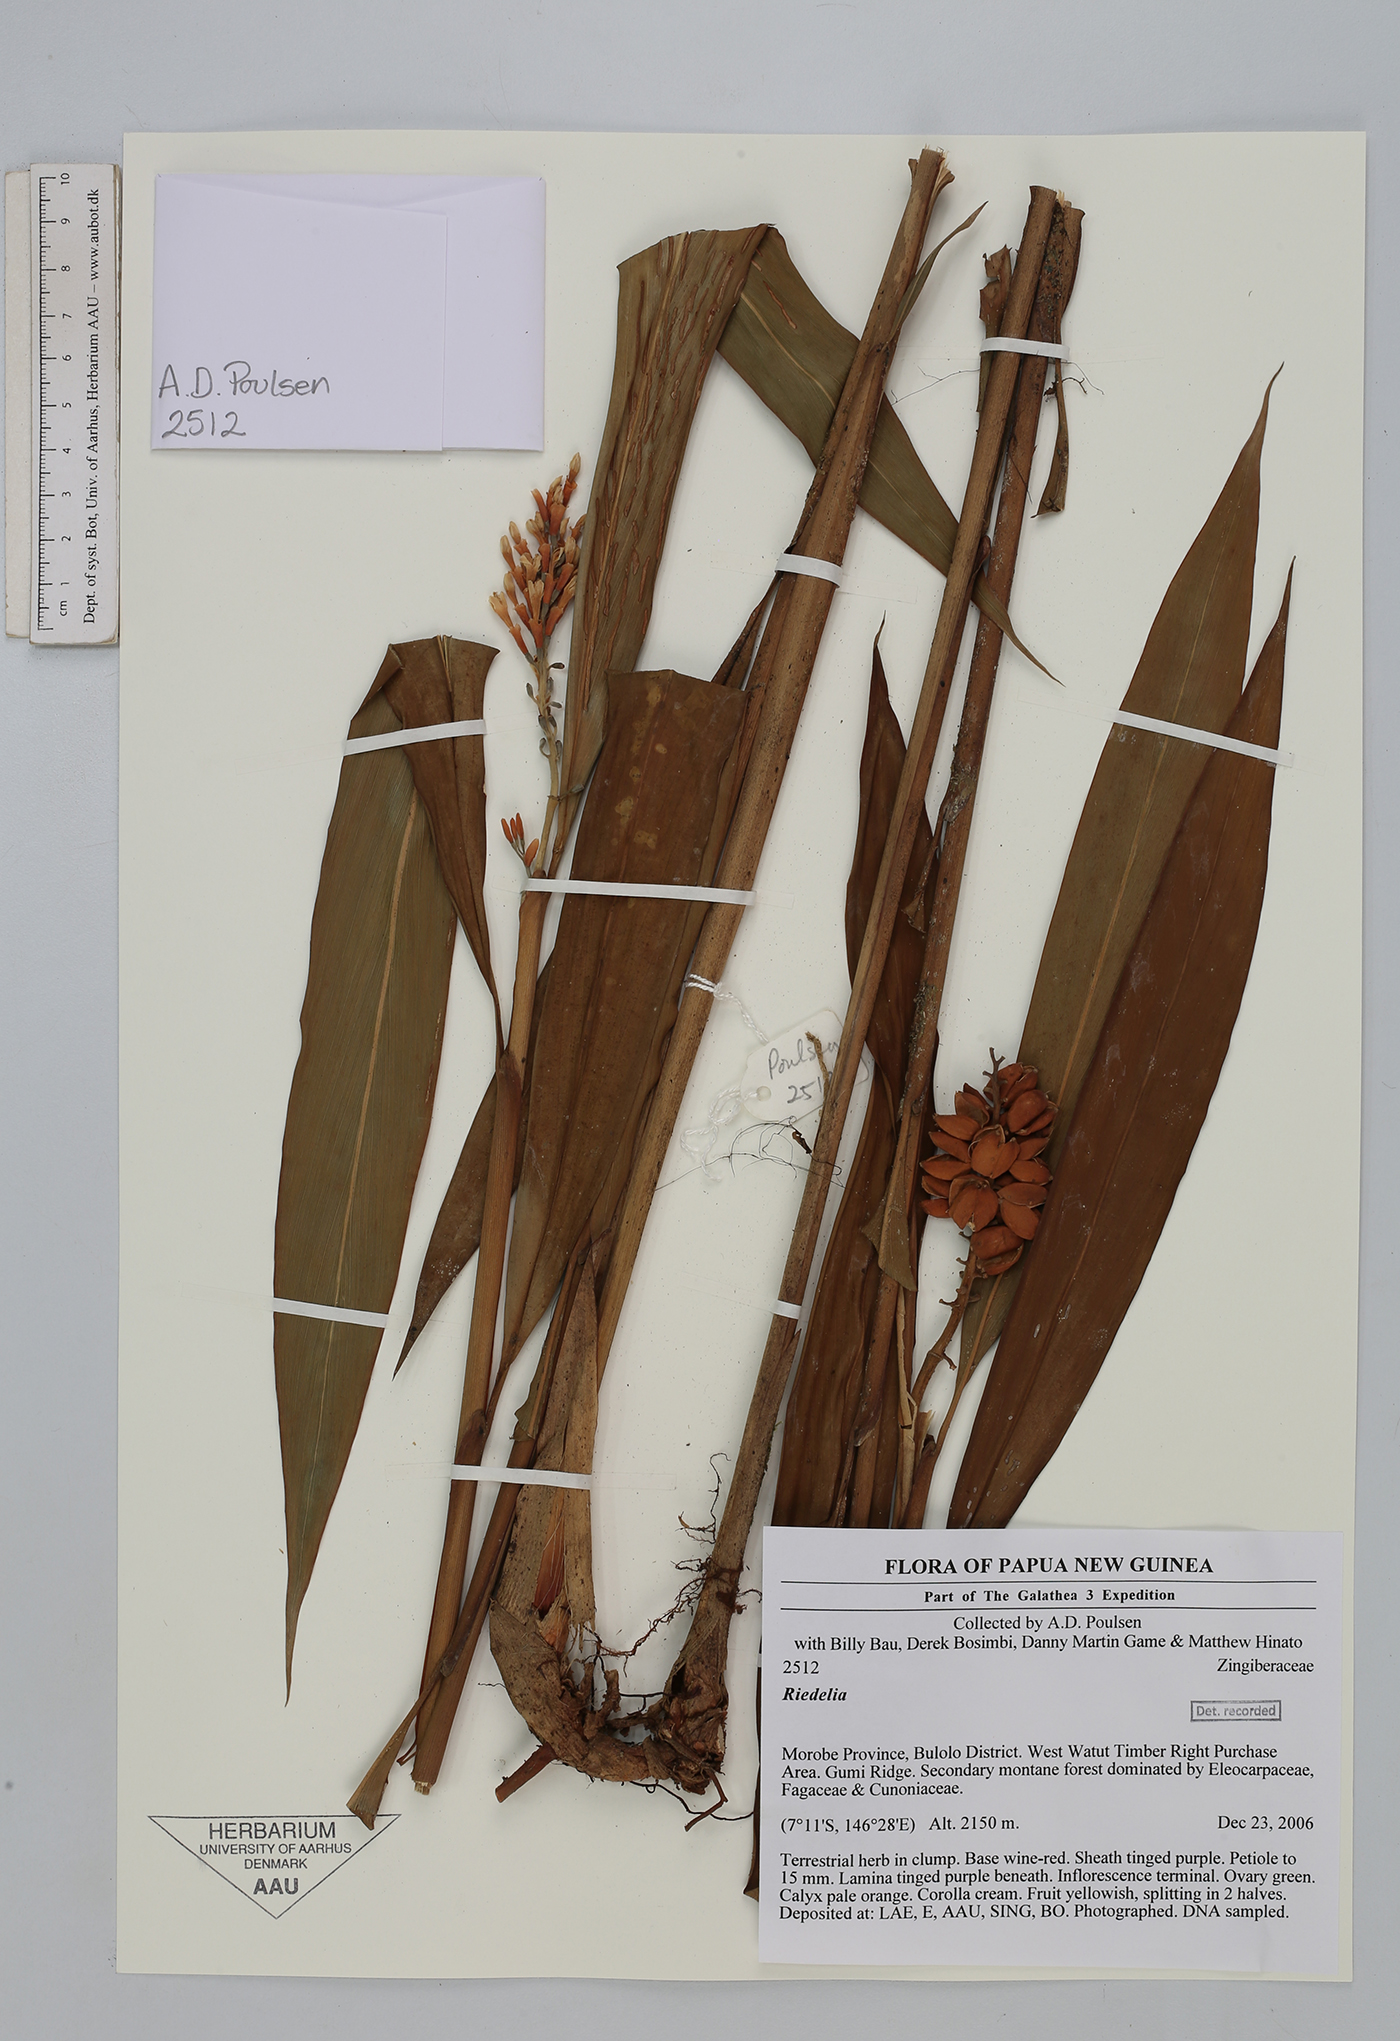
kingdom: Plantae
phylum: Tracheophyta
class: Liliopsida
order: Zingiberales
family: Zingiberaceae
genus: Riedelia
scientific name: Riedelia
